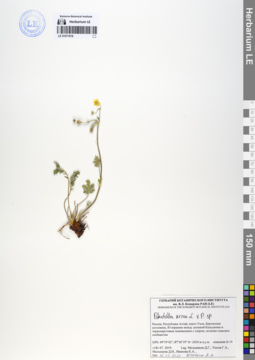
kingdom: Plantae
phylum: Tracheophyta
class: Magnoliopsida
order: Rosales
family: Rosaceae
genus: Potentilla
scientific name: Potentilla sericea
